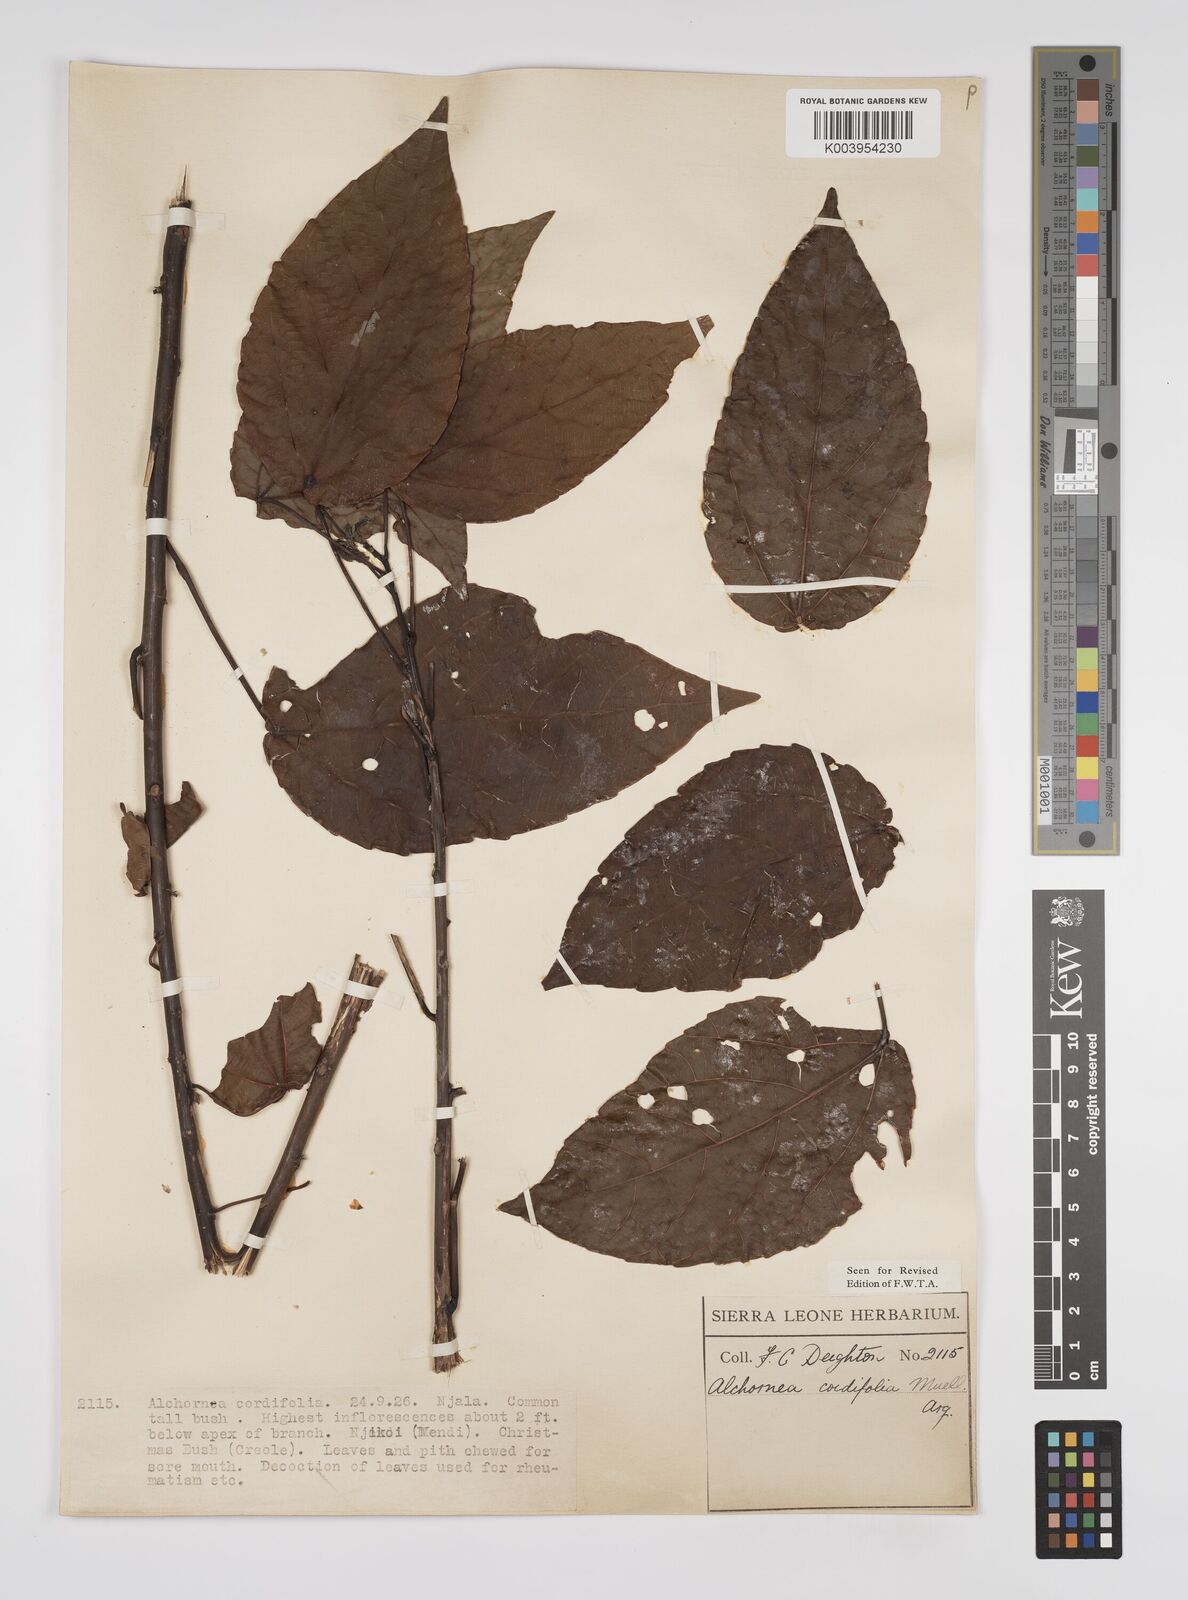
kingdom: Plantae
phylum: Tracheophyta
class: Magnoliopsida
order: Malpighiales
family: Euphorbiaceae
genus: Alchornea
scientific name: Alchornea cordifolia
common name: Christmasbush
